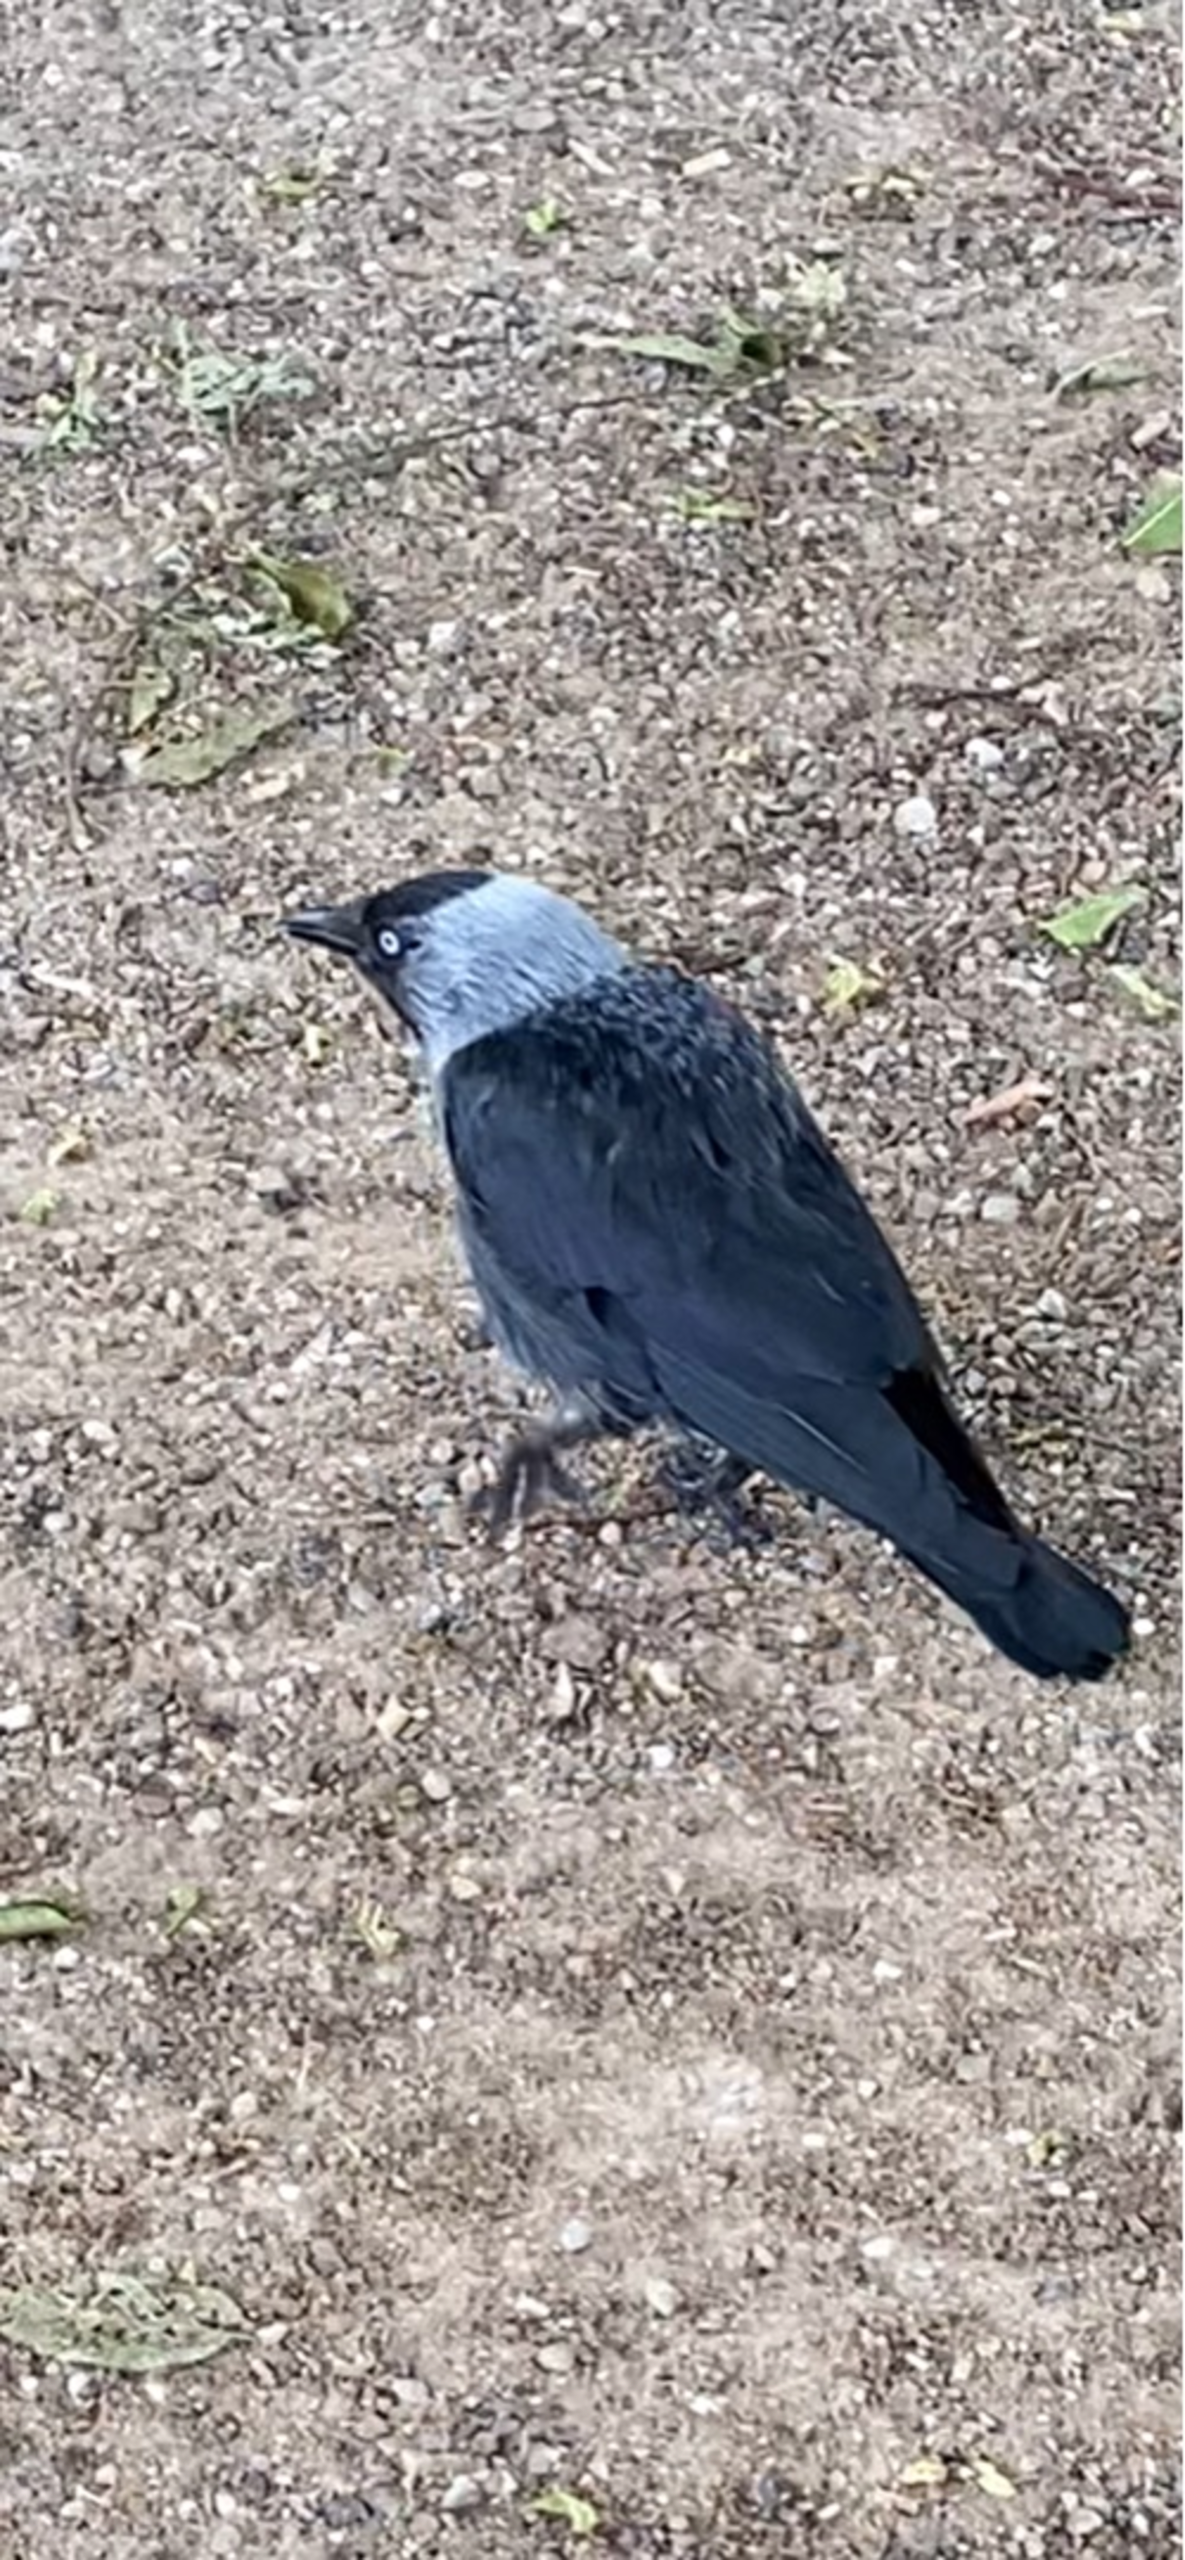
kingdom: Animalia
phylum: Chordata
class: Aves
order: Passeriformes
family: Corvidae
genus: Coloeus
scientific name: Coloeus monedula
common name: Allike
